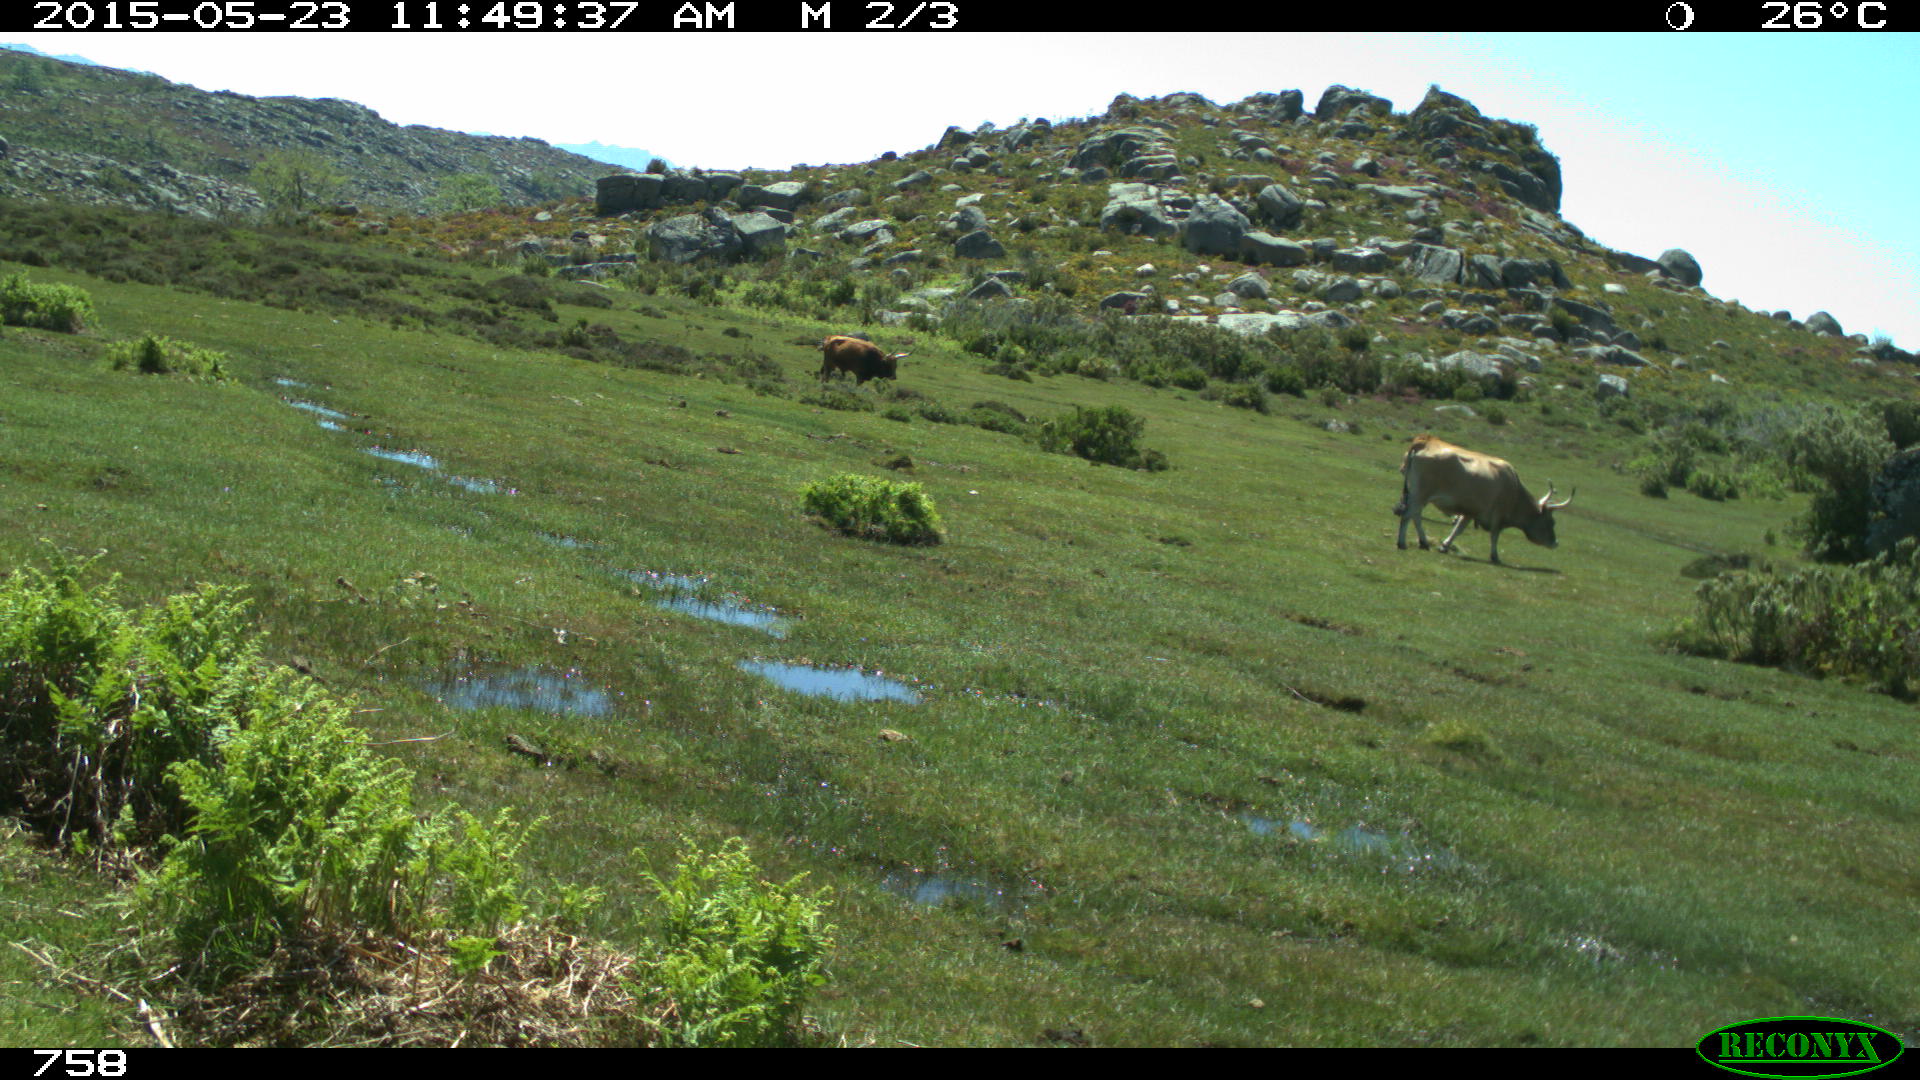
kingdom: Animalia
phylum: Chordata
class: Mammalia
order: Artiodactyla
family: Bovidae
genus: Bos
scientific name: Bos taurus
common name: Domesticated cattle
